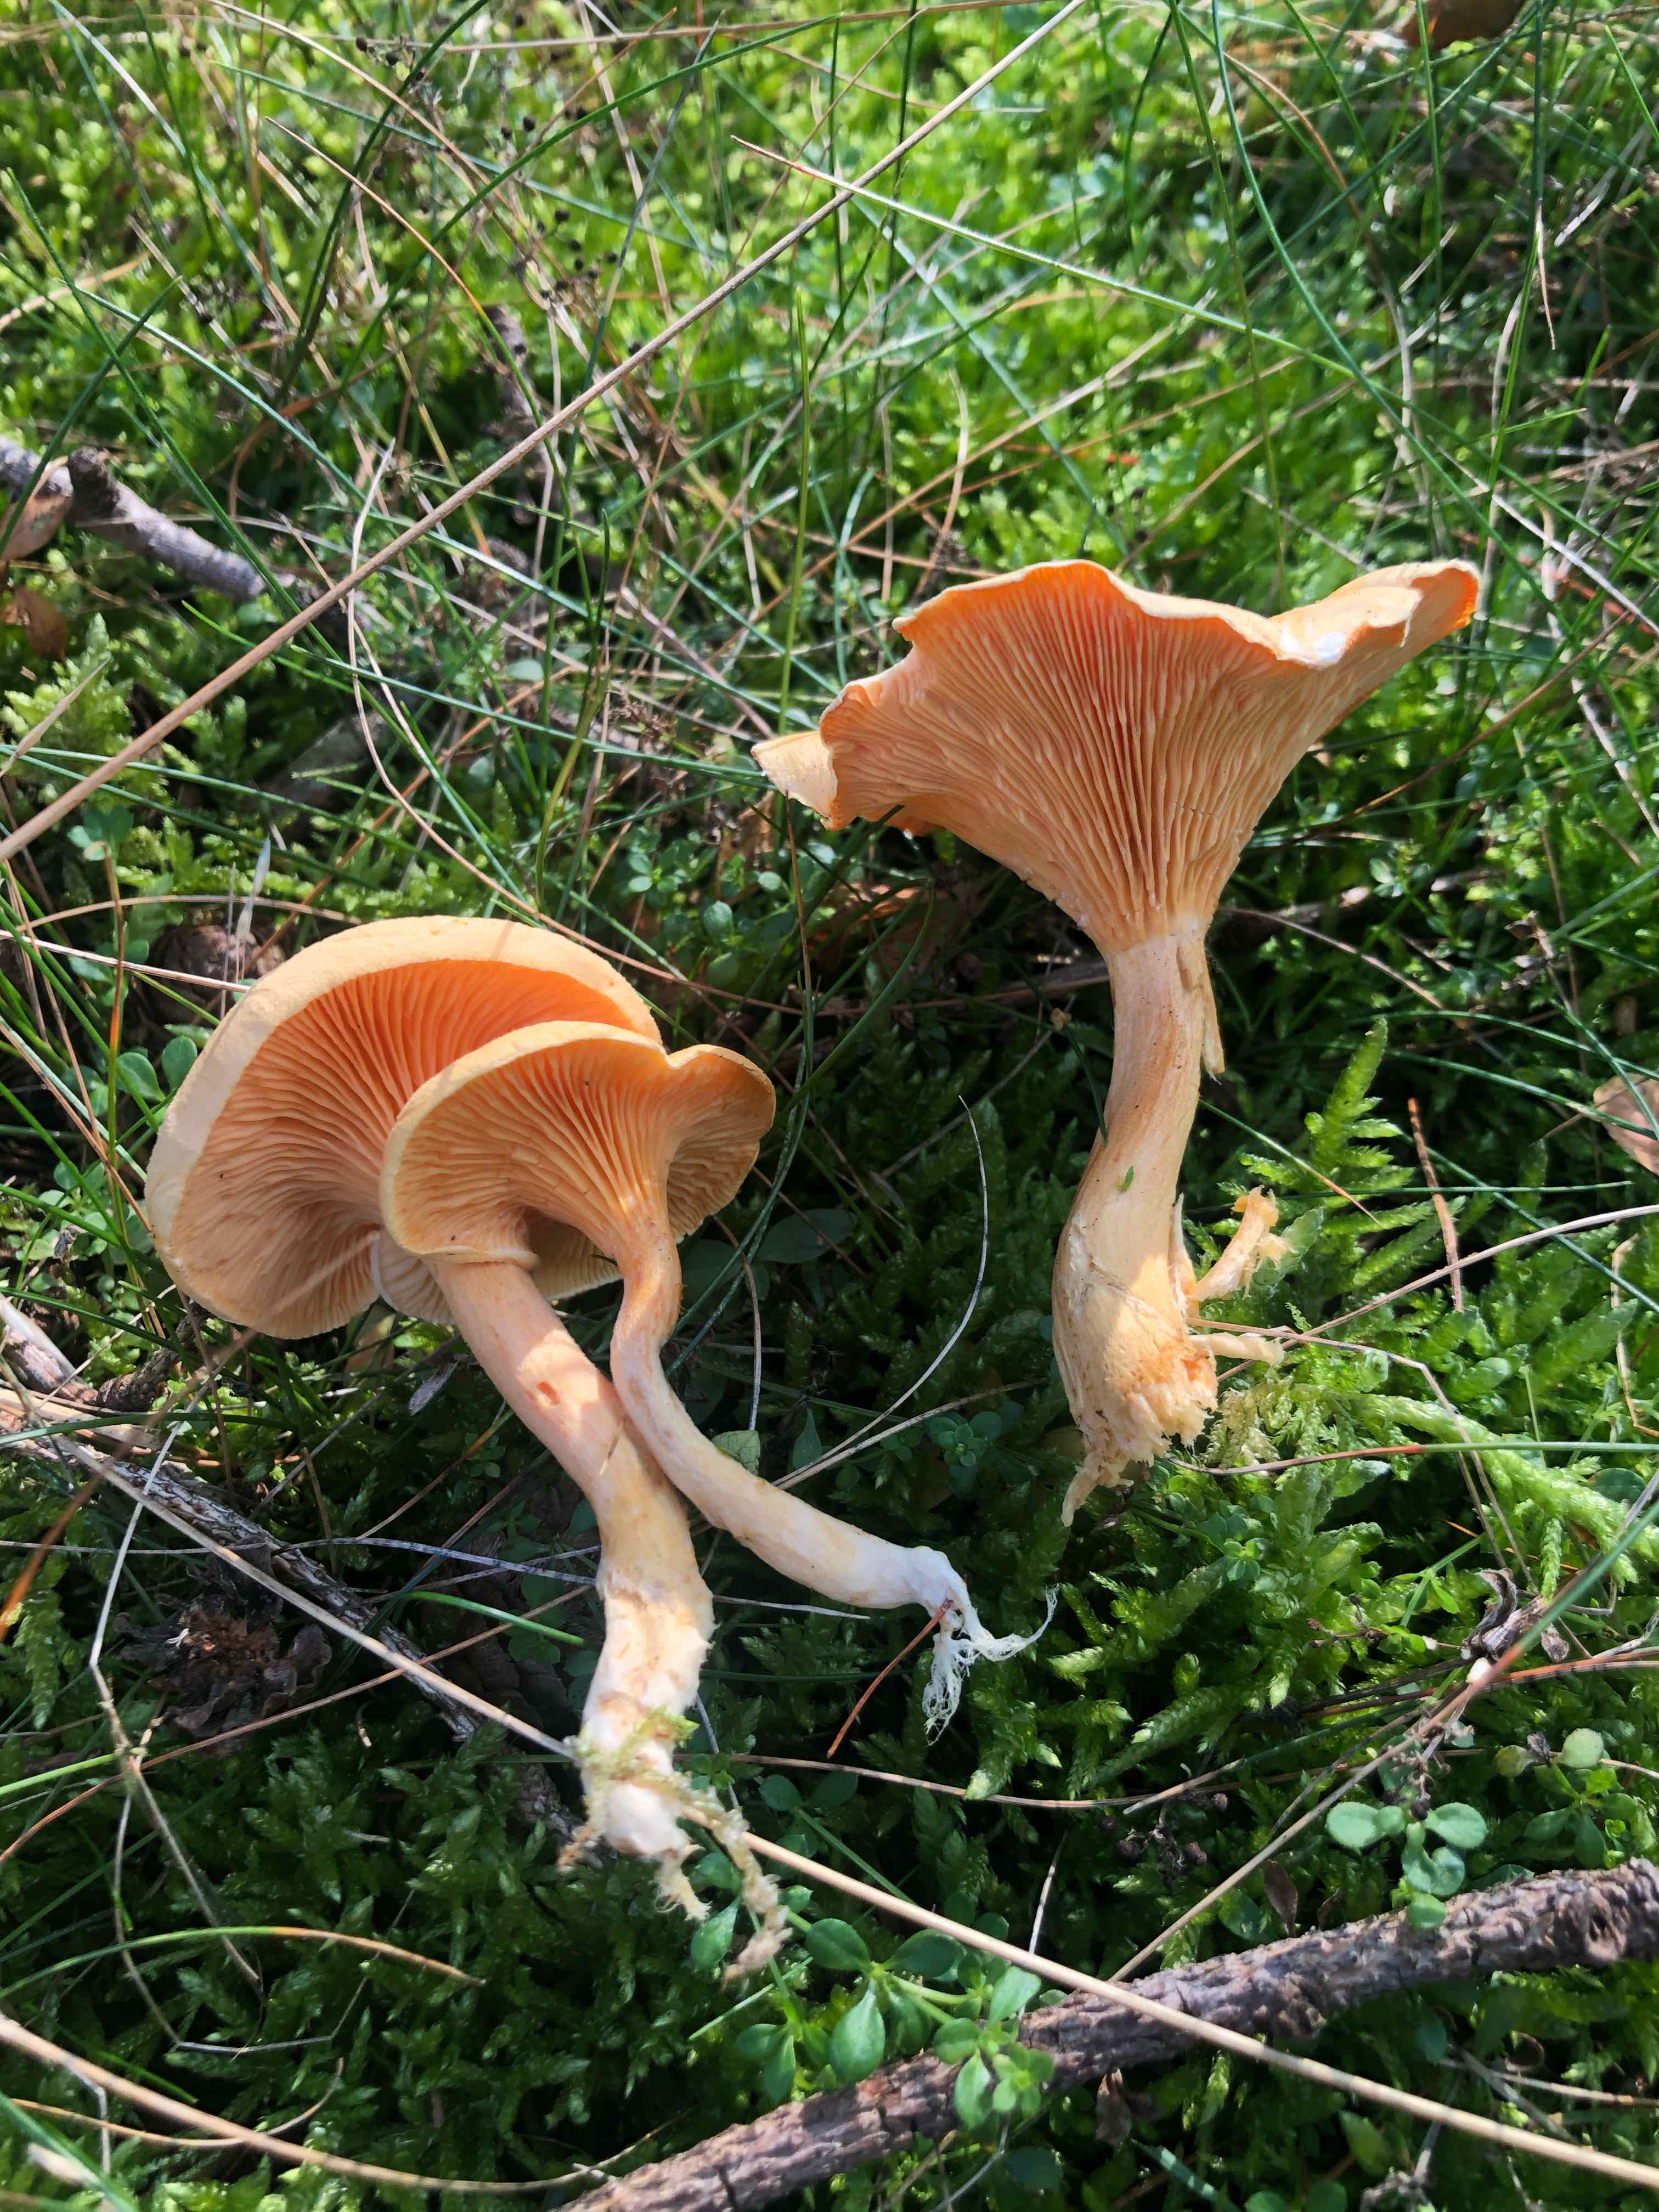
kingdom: Fungi
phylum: Basidiomycota
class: Agaricomycetes
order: Boletales
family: Hygrophoropsidaceae
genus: Hygrophoropsis
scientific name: Hygrophoropsis aurantiaca
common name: almindelig orangekantarel
